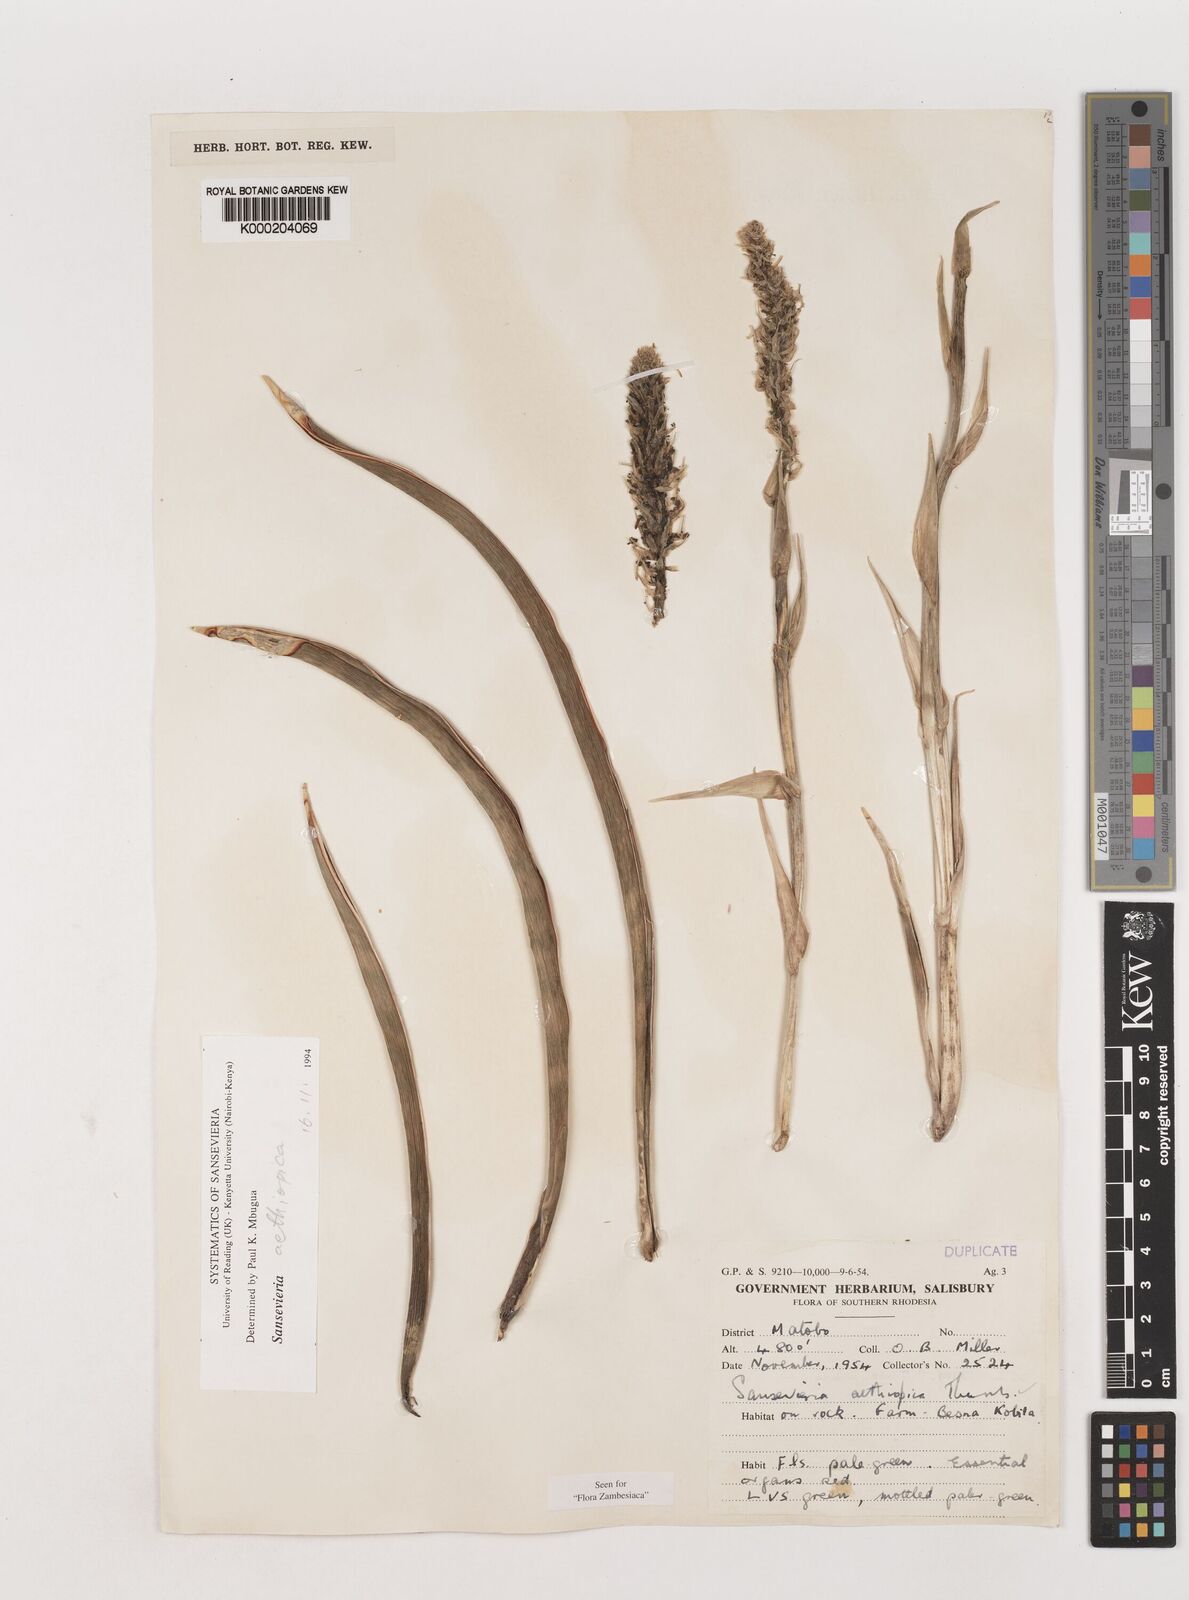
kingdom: Plantae
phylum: Tracheophyta
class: Liliopsida
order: Asparagales
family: Asparagaceae
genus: Dracaena
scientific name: Dracaena aethiopica
